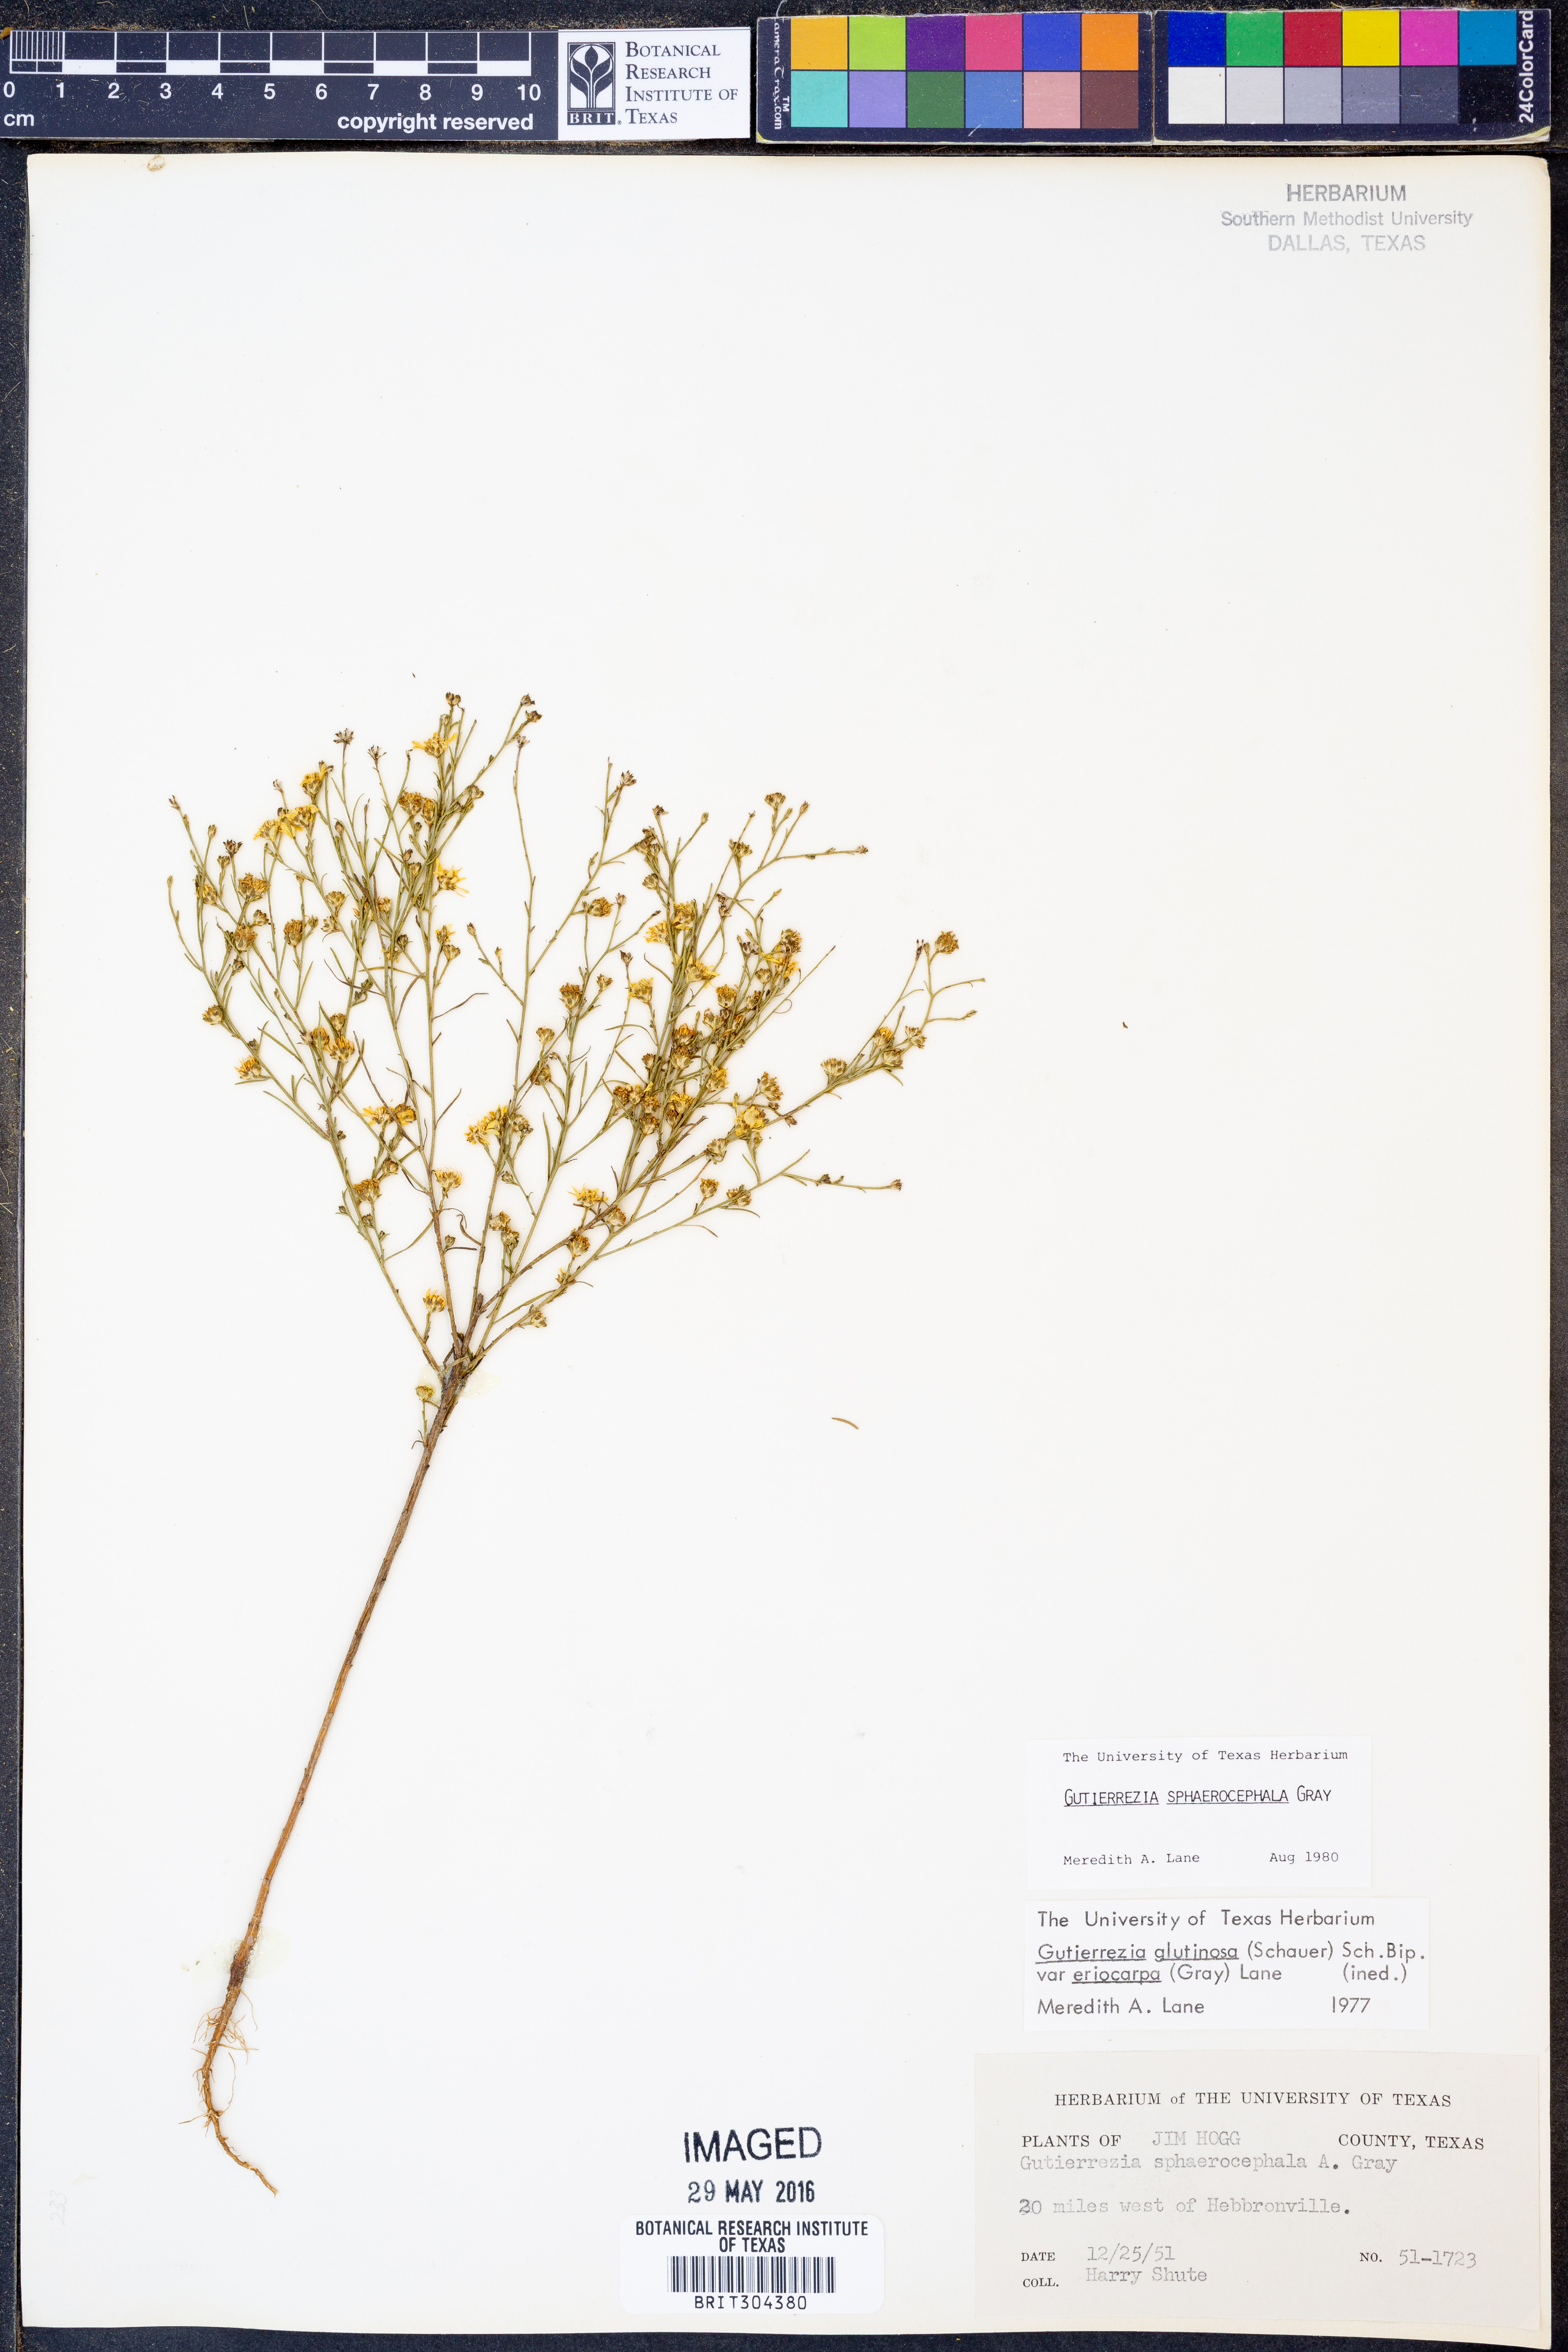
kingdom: Plantae
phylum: Tracheophyta
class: Magnoliopsida
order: Asterales
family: Asteraceae
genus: Gutierrezia
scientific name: Gutierrezia sphaerocephala
